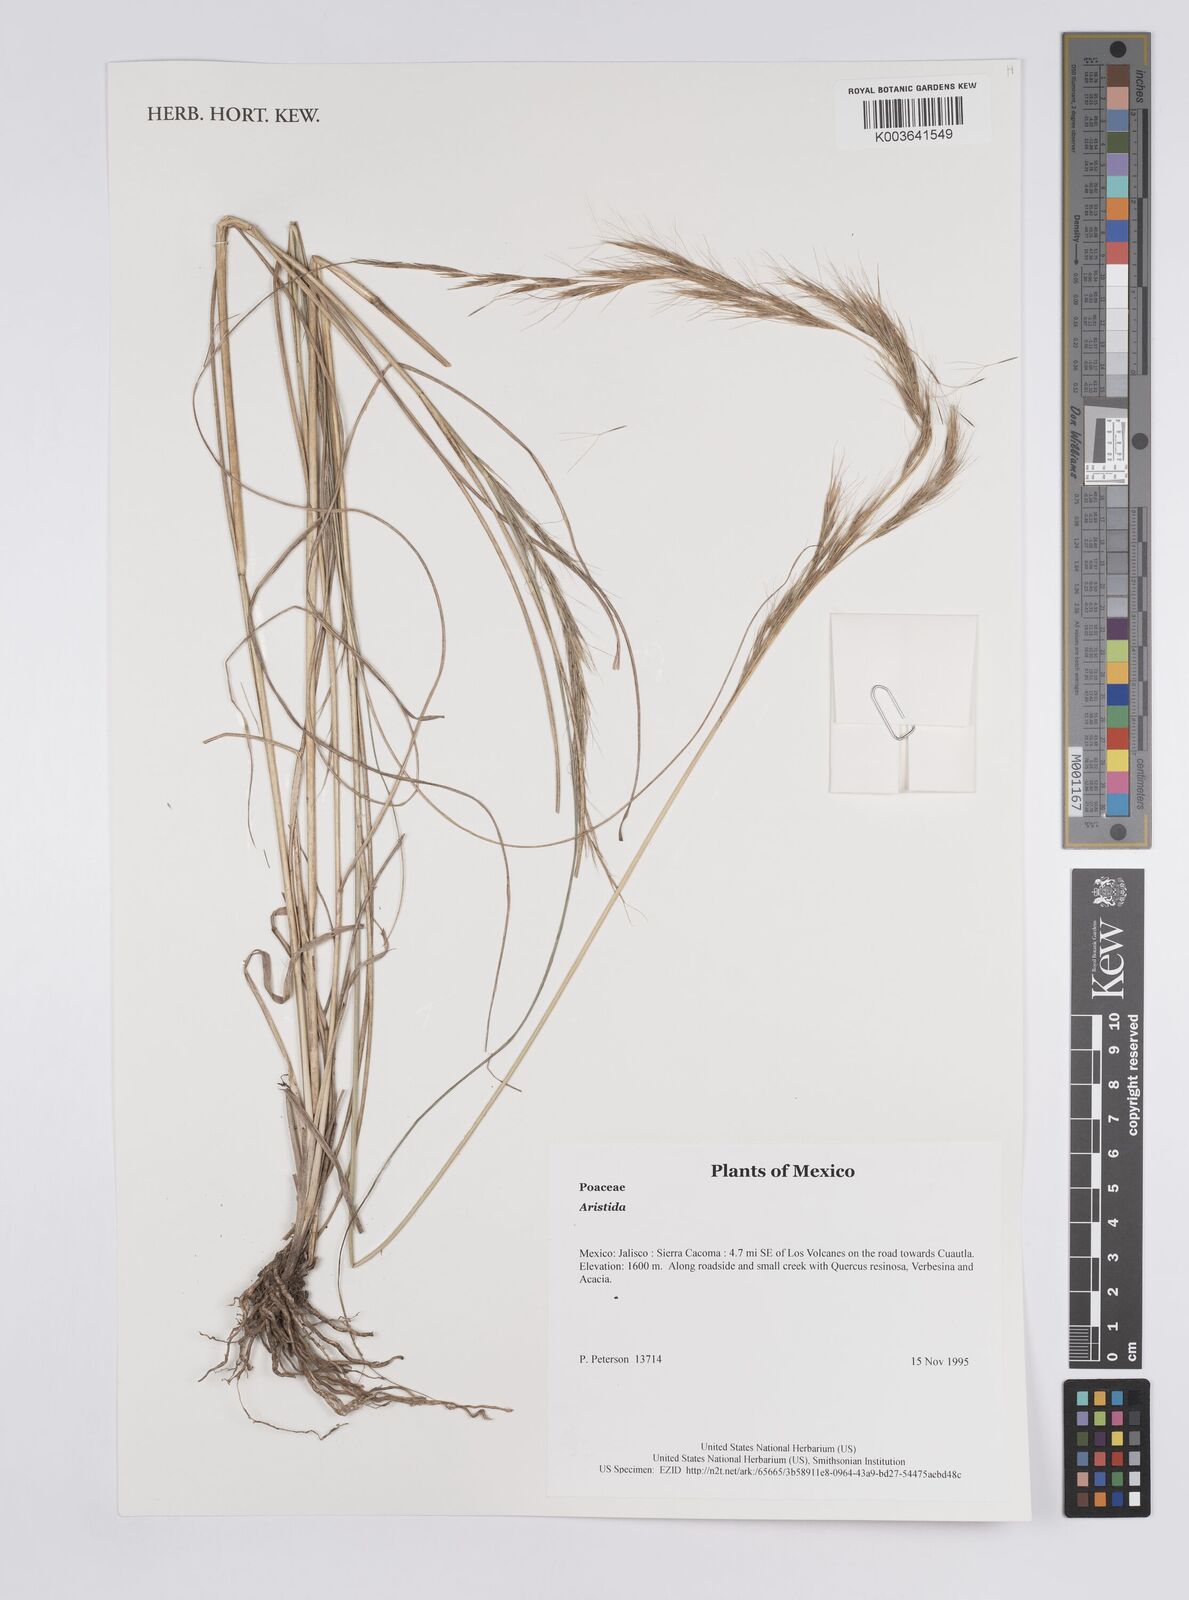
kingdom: Plantae
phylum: Tracheophyta
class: Liliopsida
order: Poales
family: Poaceae
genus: Aristida
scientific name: Aristida
